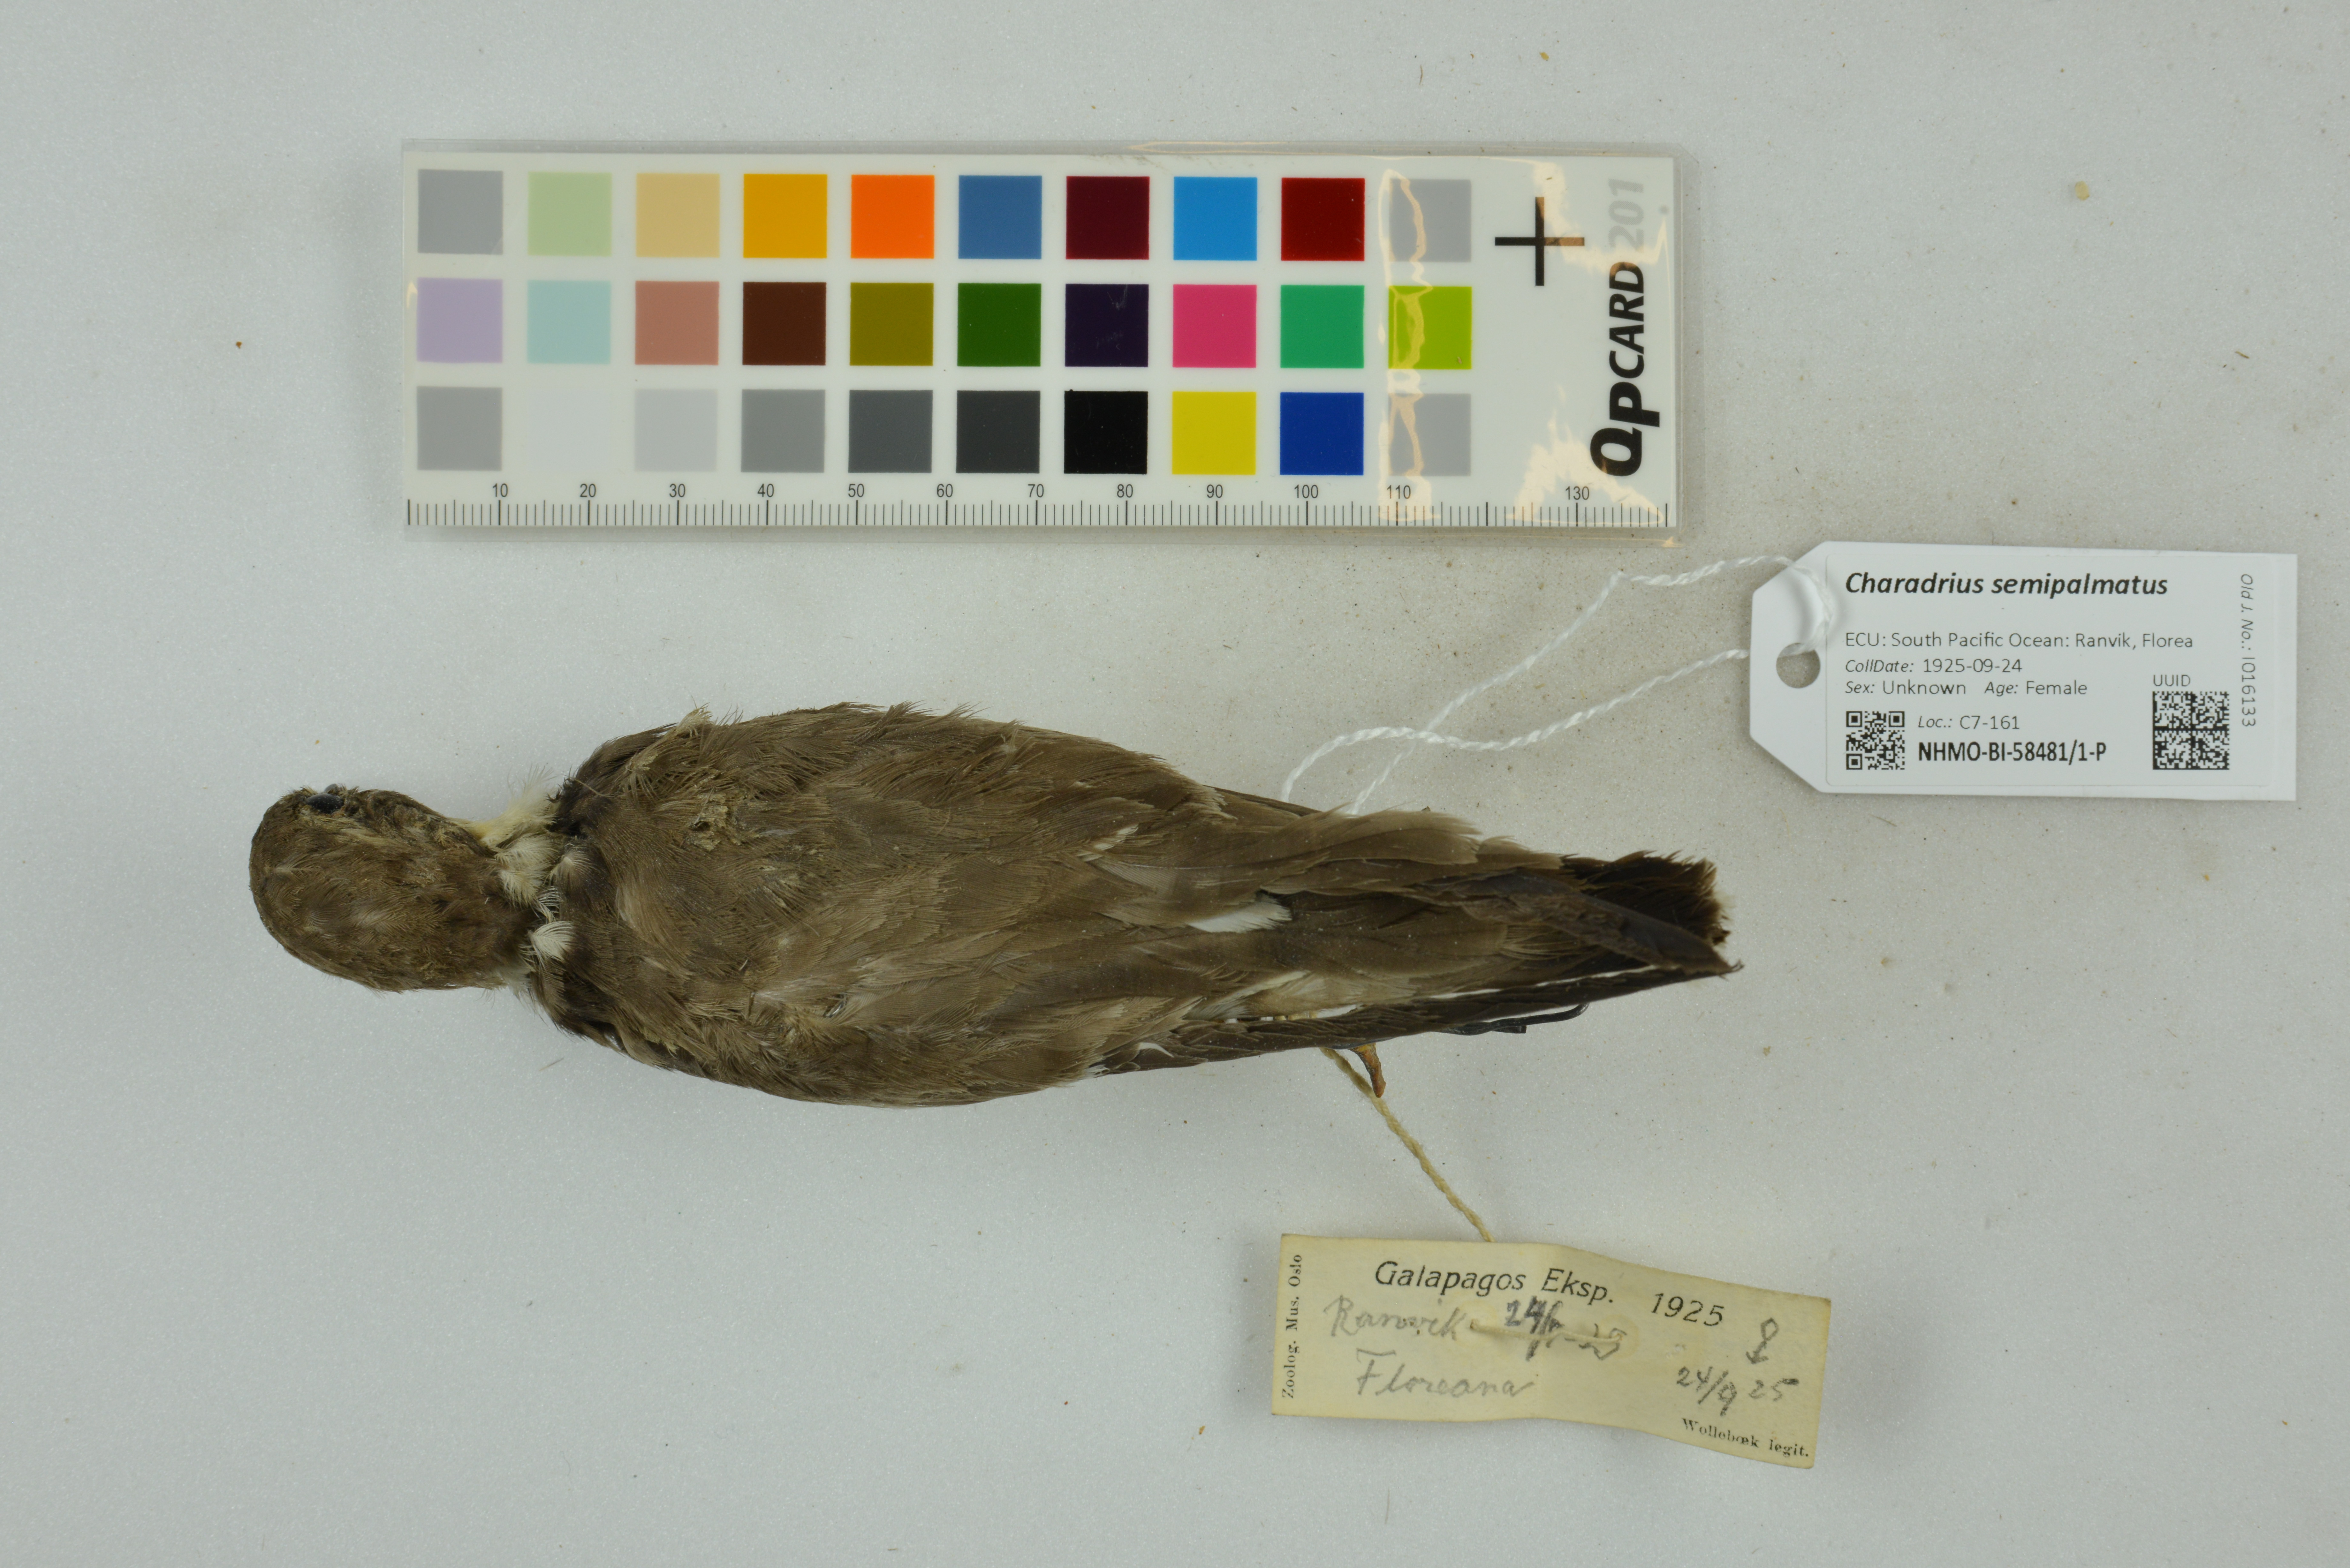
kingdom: Animalia
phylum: Chordata
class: Aves
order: Charadriiformes
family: Charadriidae
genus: Charadrius
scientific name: Charadrius semipalmatus
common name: Semipalmated plover
